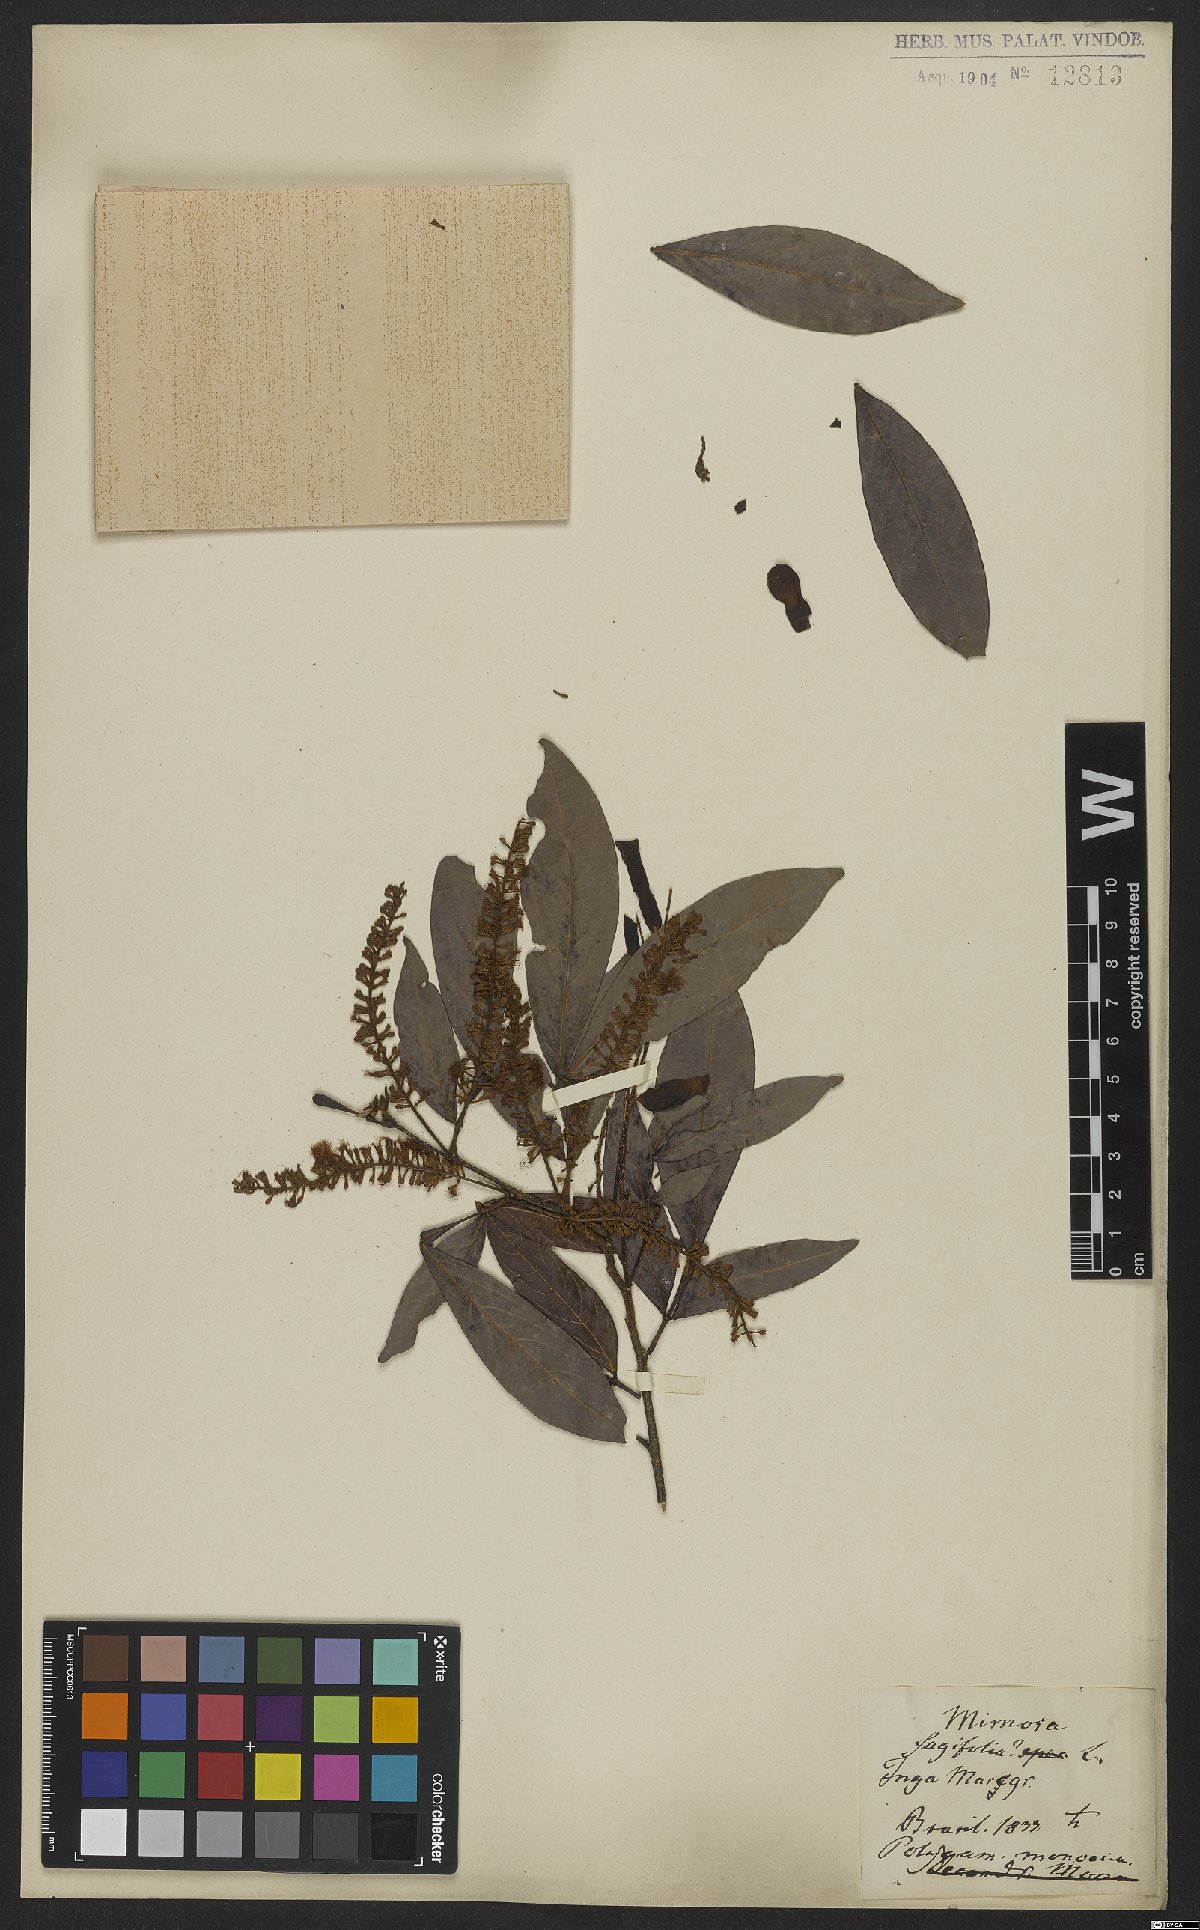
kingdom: Plantae
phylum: Tracheophyta
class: Magnoliopsida
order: Fabales
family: Fabaceae
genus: Inga
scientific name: Inga laurina
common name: Red wood
